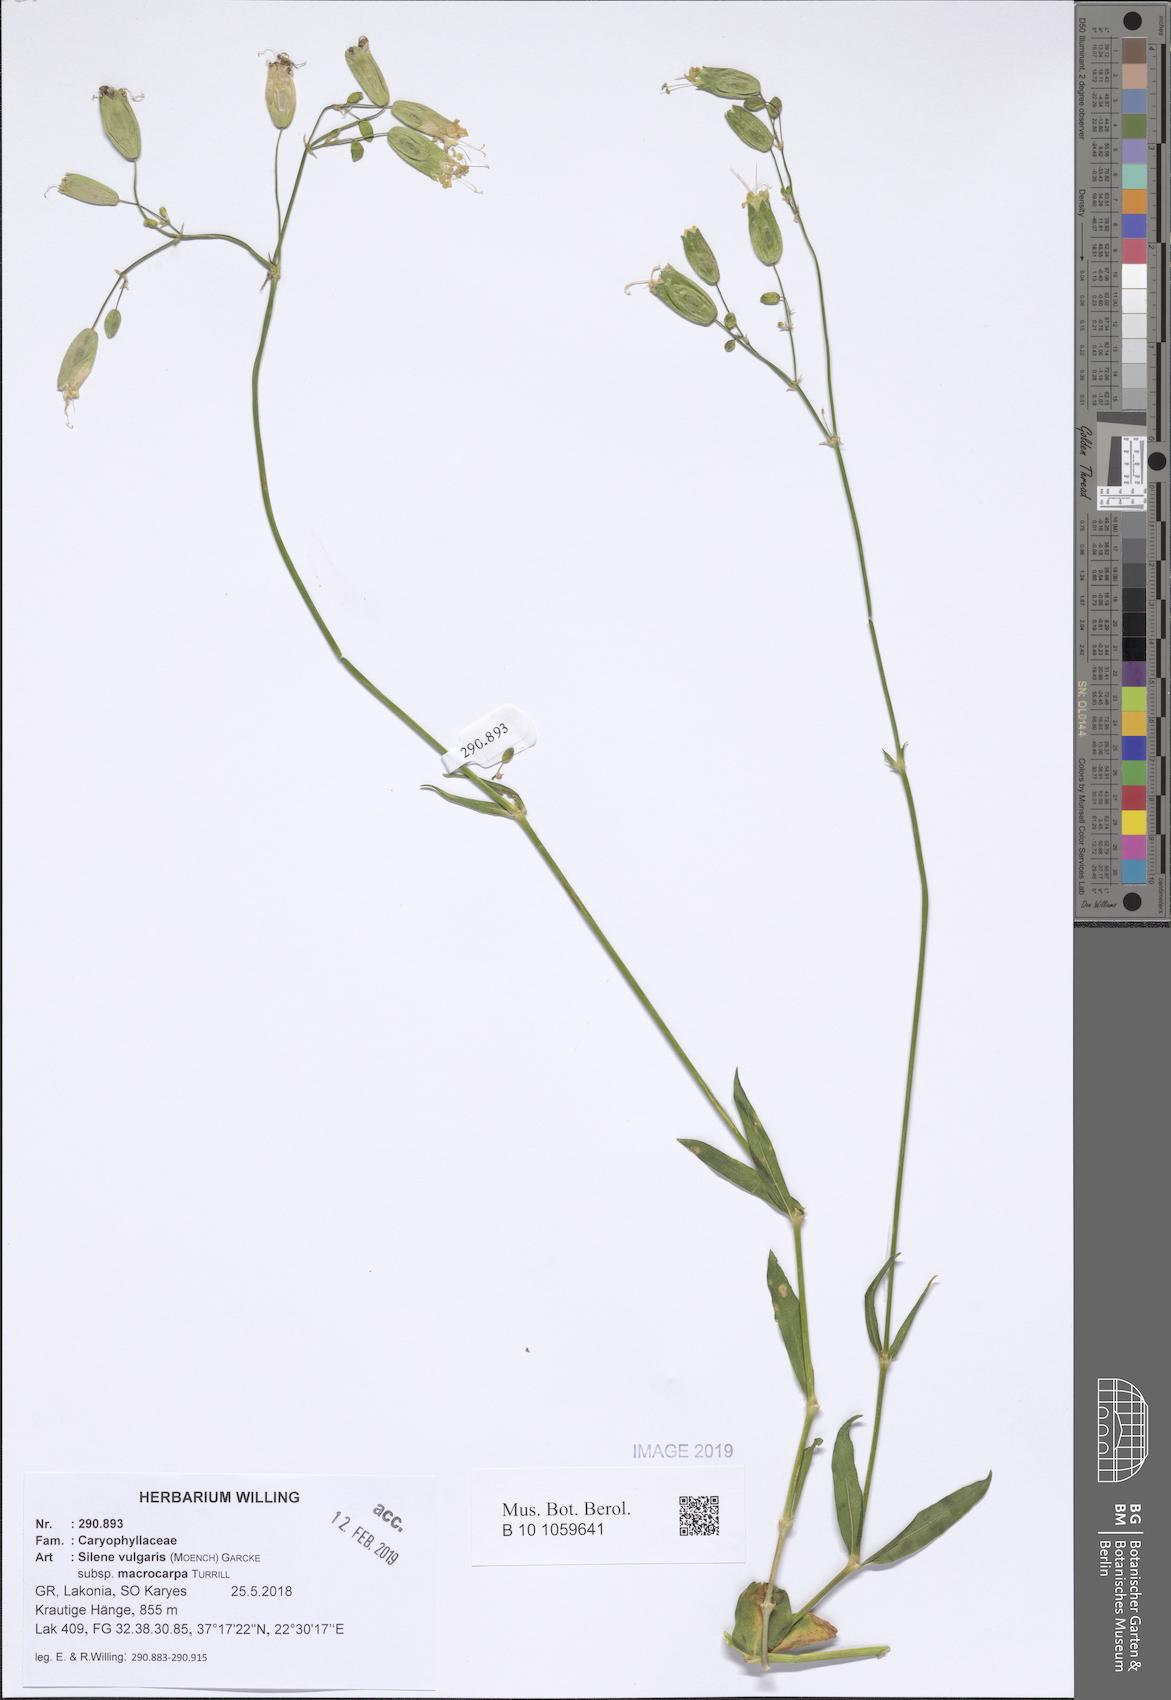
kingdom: Plantae
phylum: Tracheophyta
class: Magnoliopsida
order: Caryophyllales
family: Caryophyllaceae
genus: Silene
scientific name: Silene vulgaris
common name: Bladder campion
